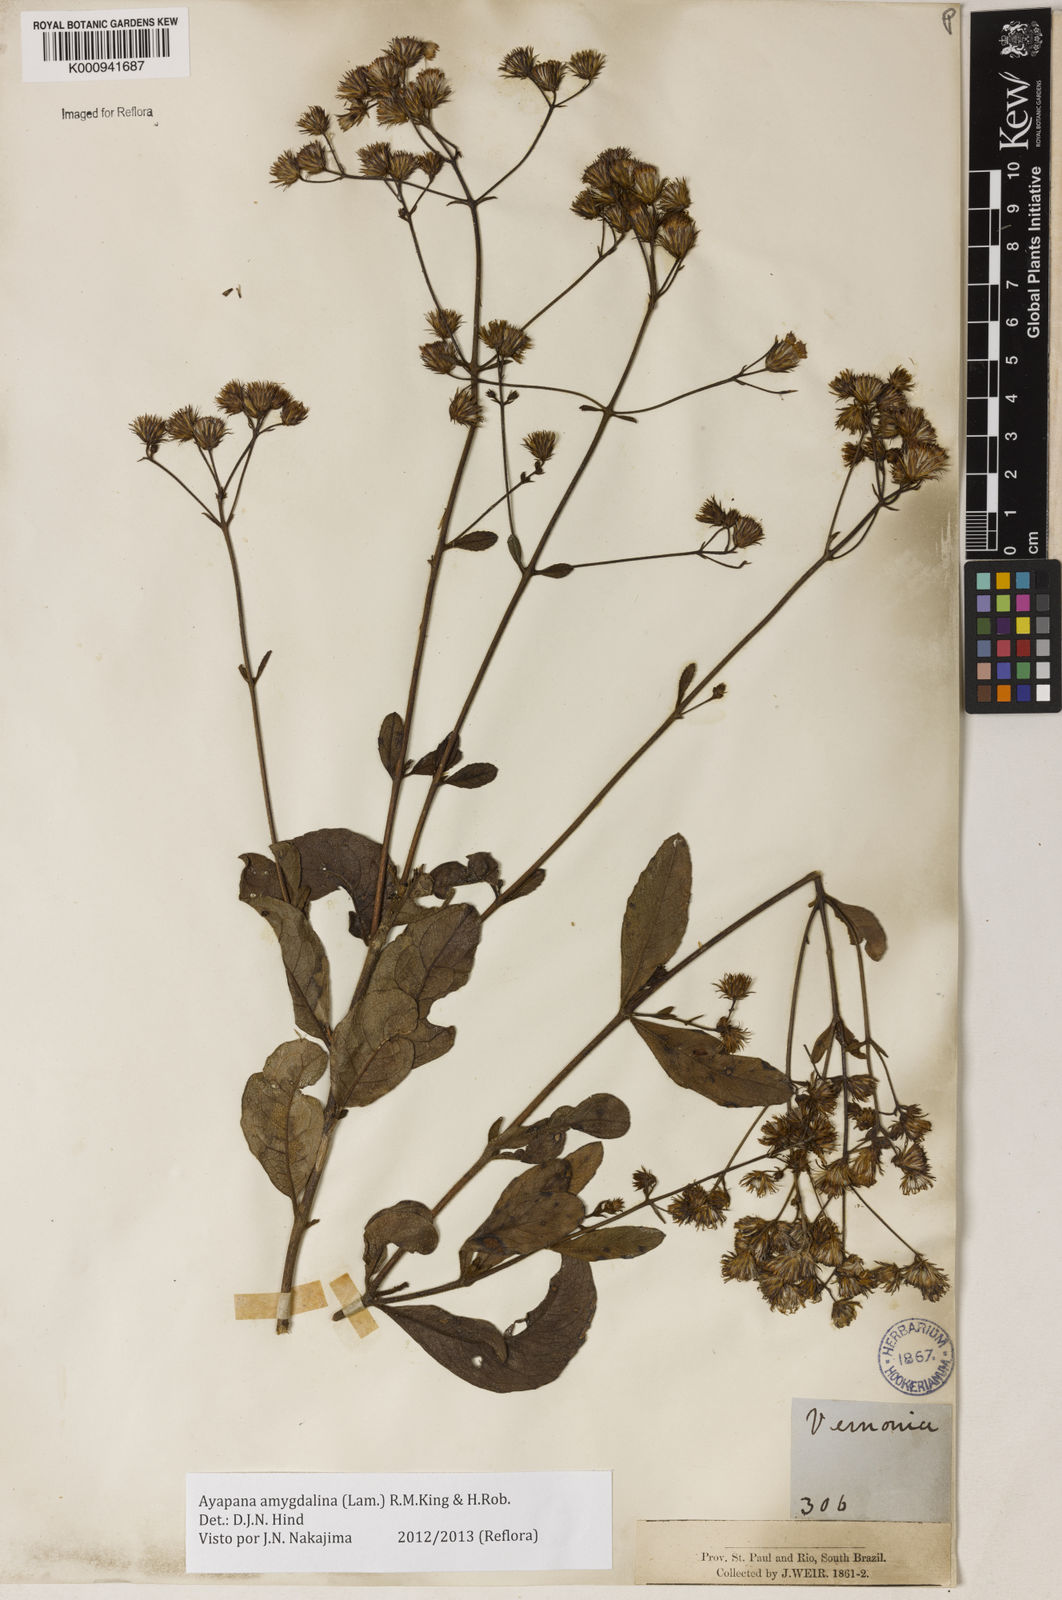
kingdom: Plantae
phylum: Tracheophyta
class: Magnoliopsida
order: Asterales
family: Asteraceae
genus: Ayapana
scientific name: Ayapana amygdalina
